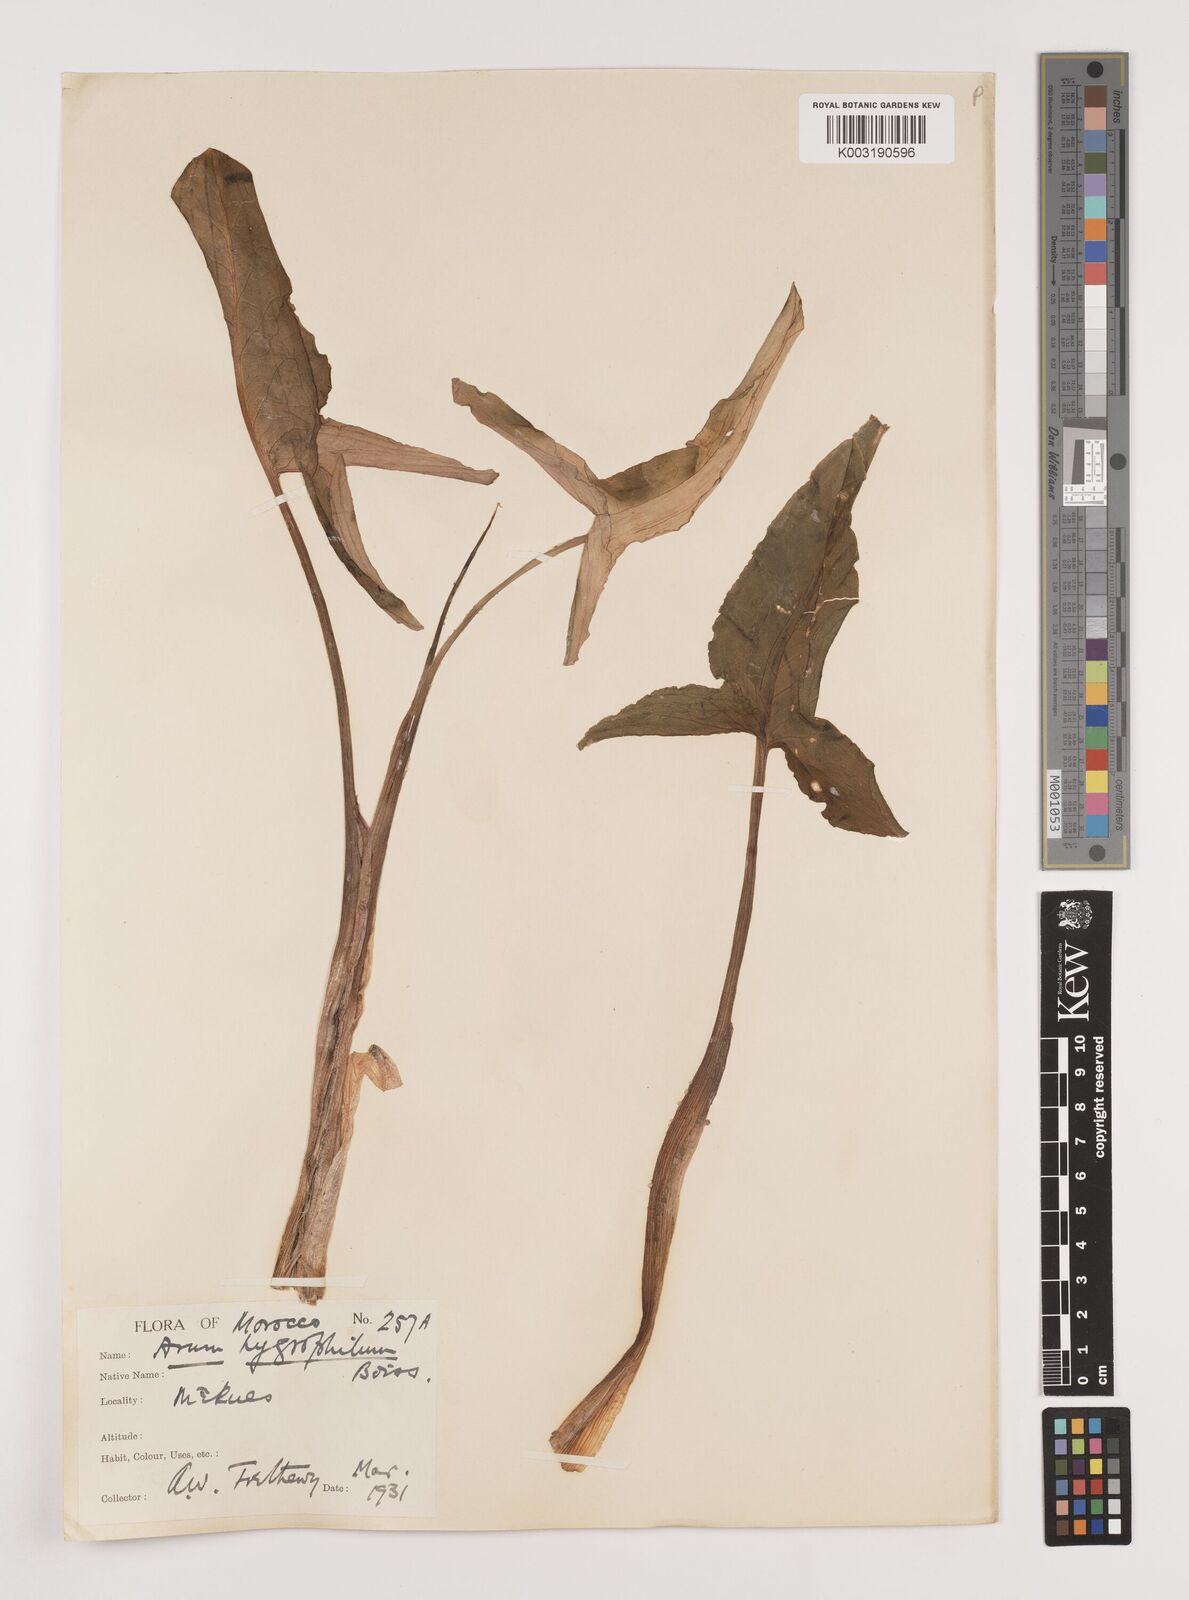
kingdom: Plantae
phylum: Tracheophyta
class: Liliopsida
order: Alismatales
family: Araceae
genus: Arum
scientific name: Arum hygrophilum
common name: Water arum
